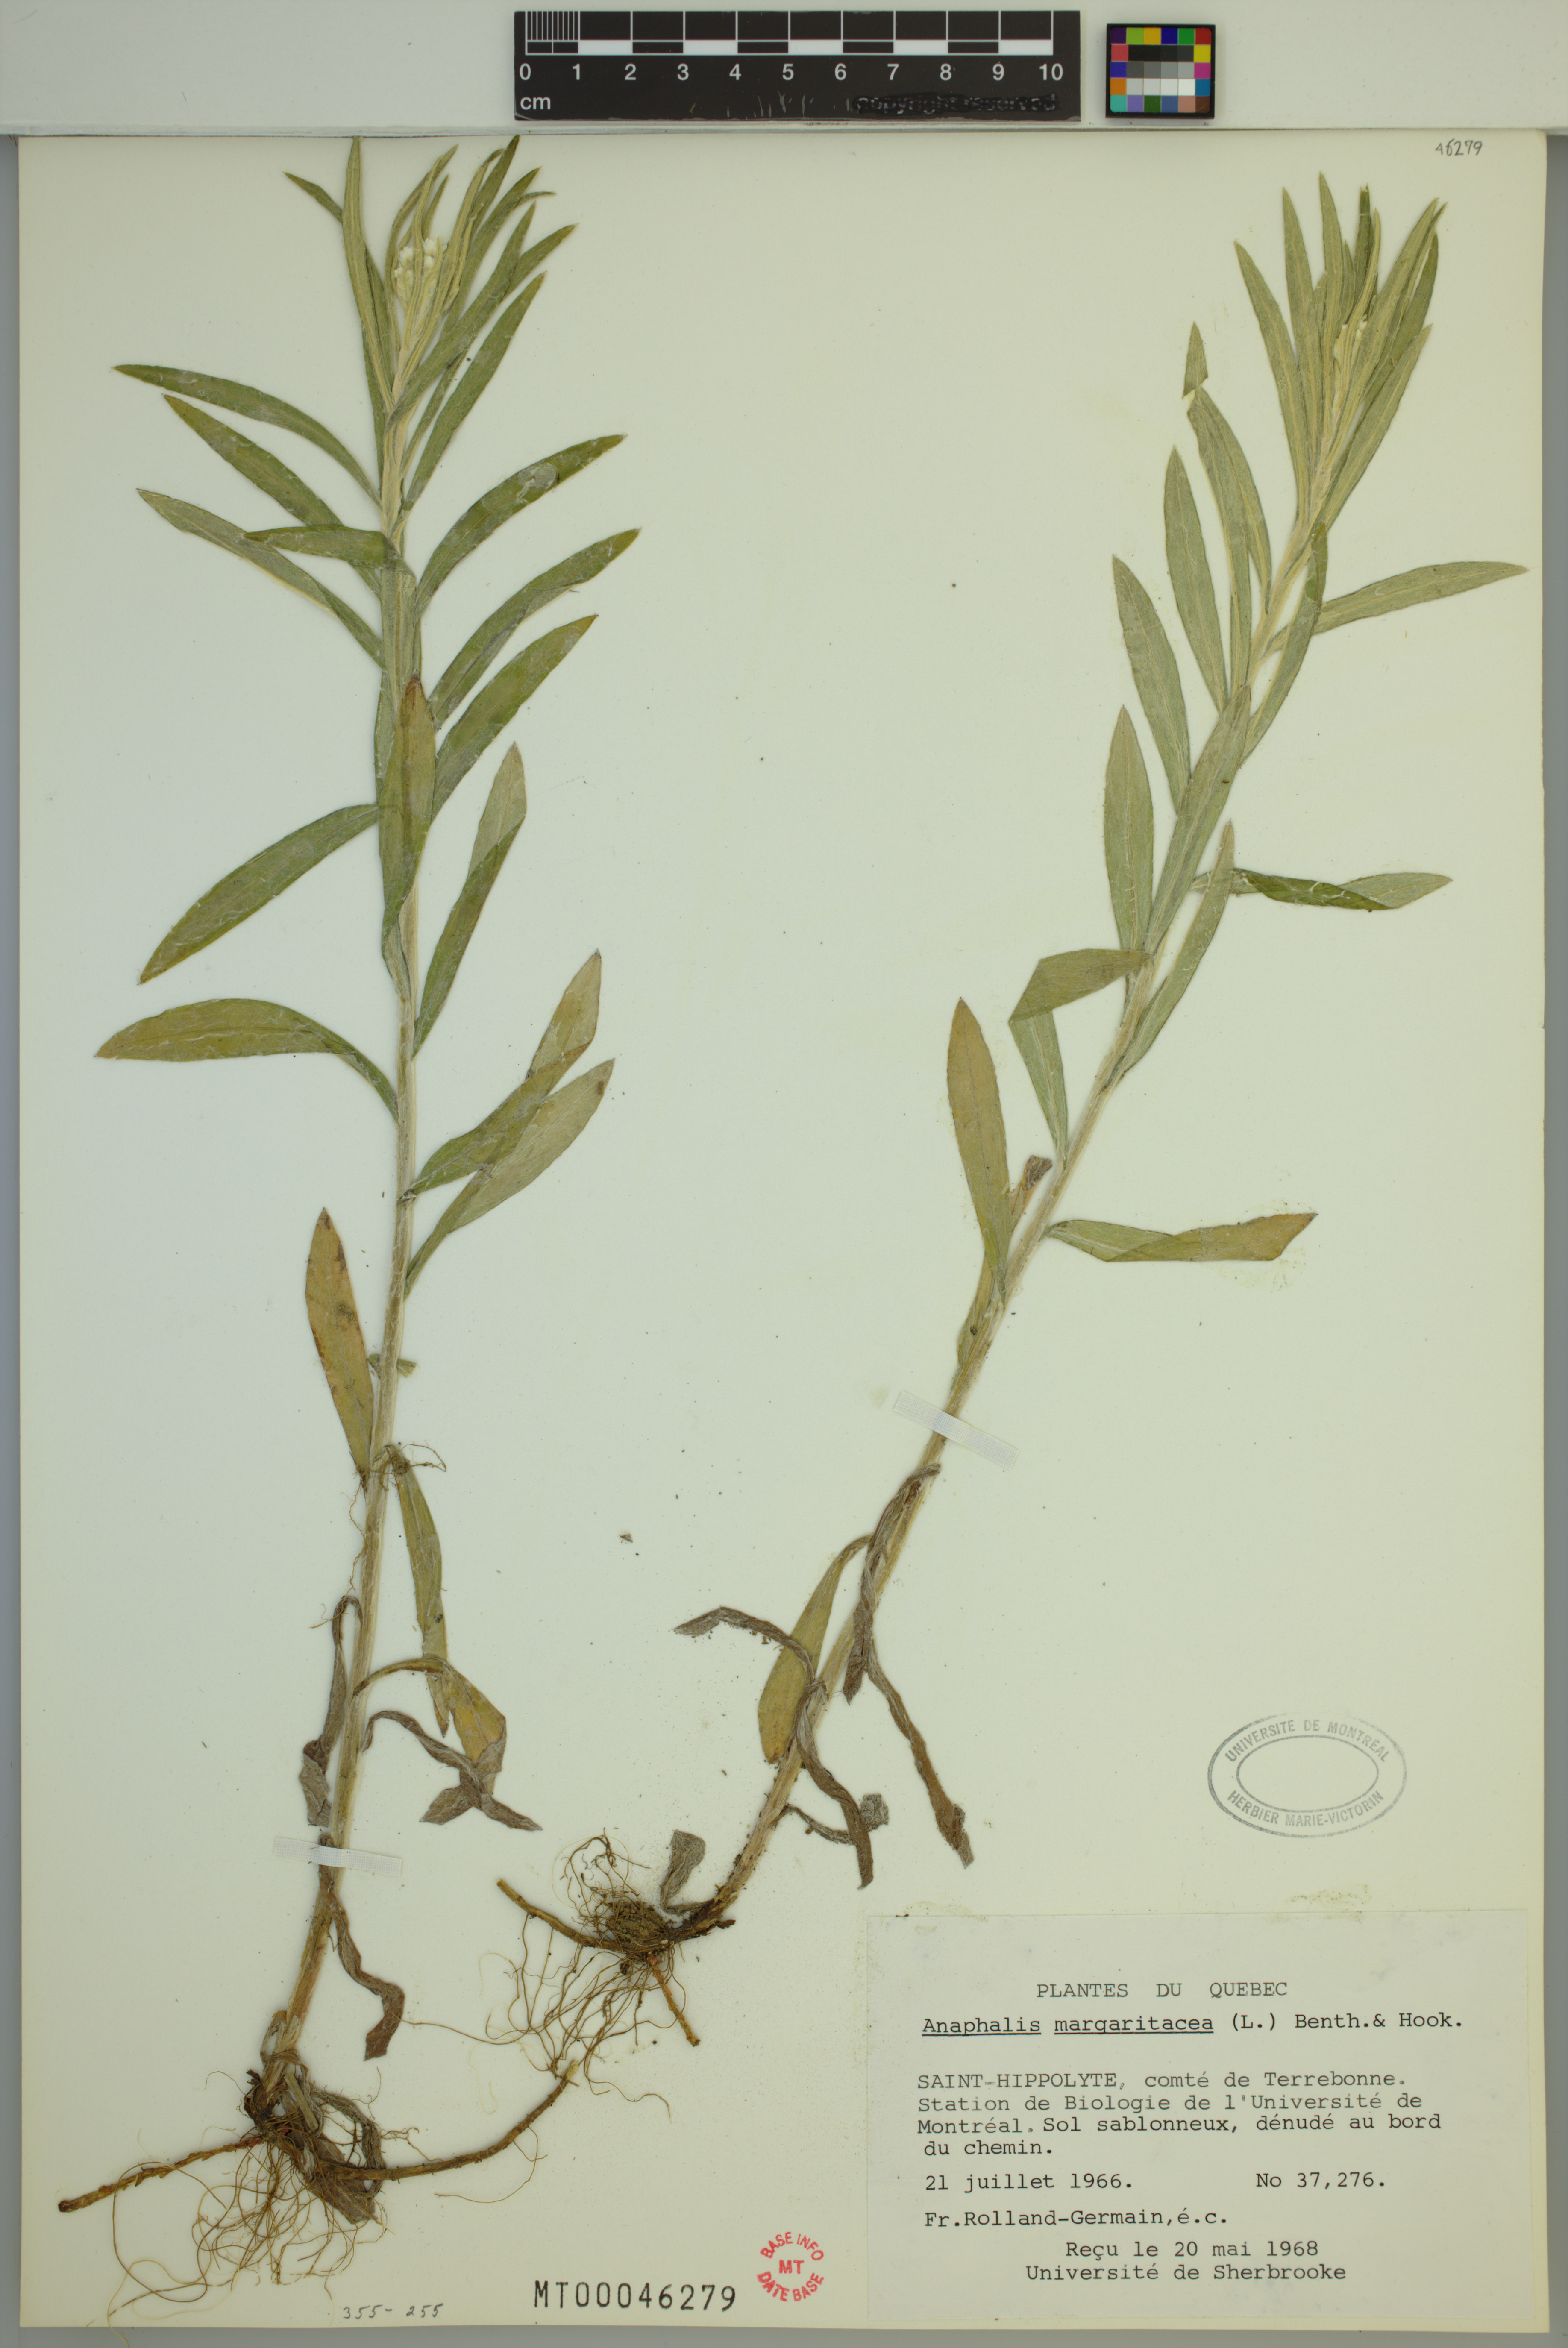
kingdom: Plantae
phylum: Tracheophyta
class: Magnoliopsida
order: Asterales
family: Asteraceae
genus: Anaphalis
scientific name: Anaphalis margaritacea
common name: Pearly everlasting
